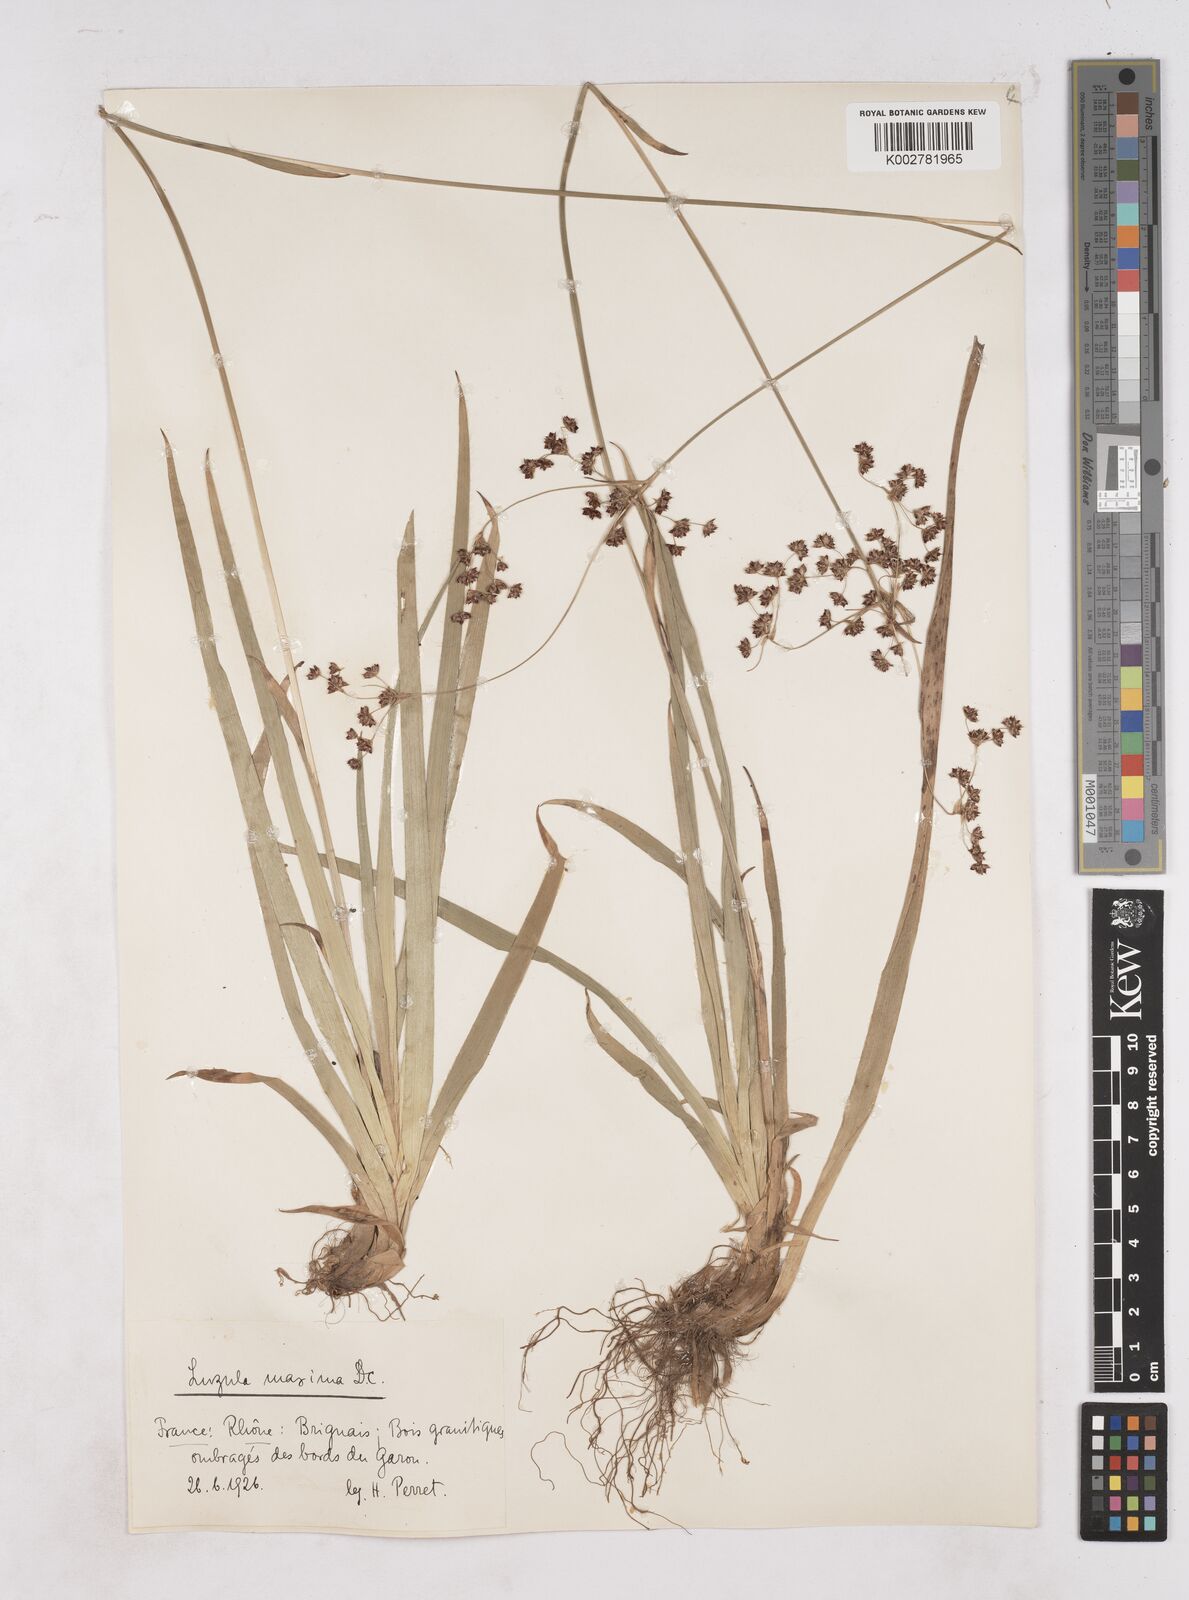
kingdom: Plantae
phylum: Tracheophyta
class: Liliopsida
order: Poales
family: Juncaceae
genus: Luzula
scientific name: Luzula sylvatica
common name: Great wood-rush
